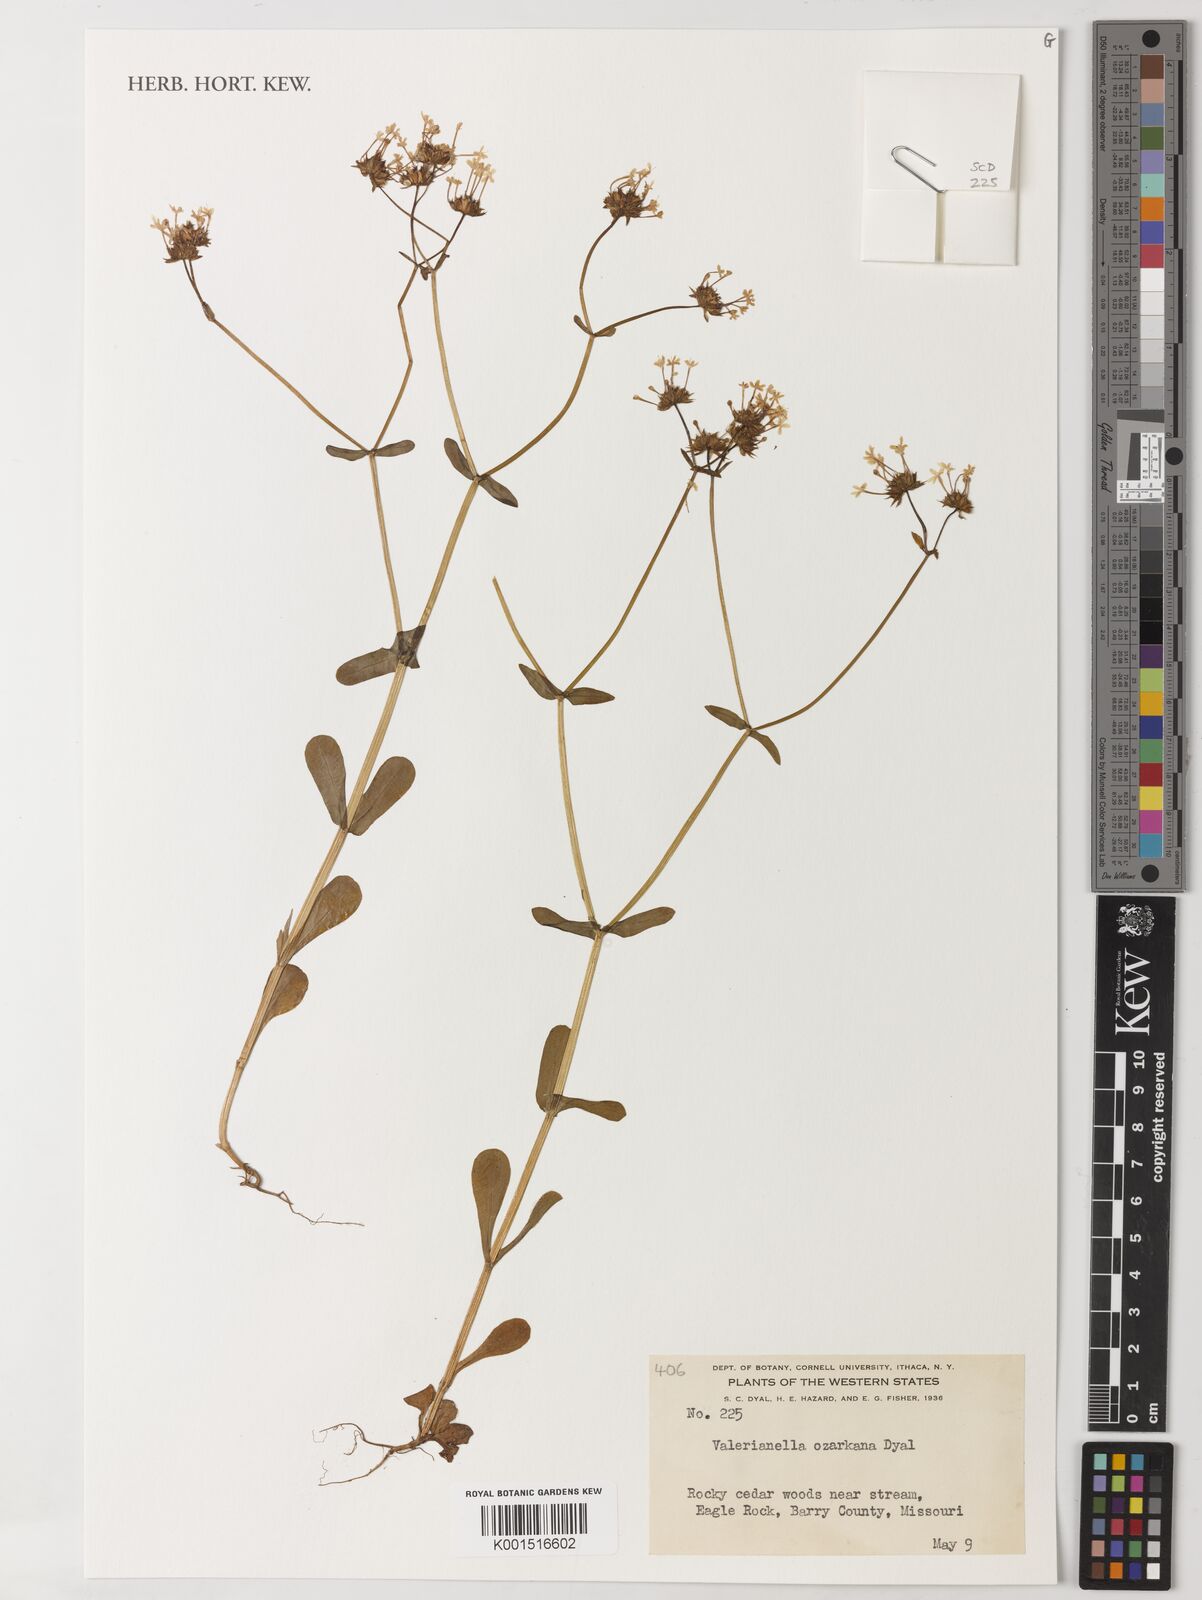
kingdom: Plantae
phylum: Tracheophyta
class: Magnoliopsida
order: Dipsacales
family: Caprifoliaceae
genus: Valerianella
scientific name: Valerianella ozarkana
